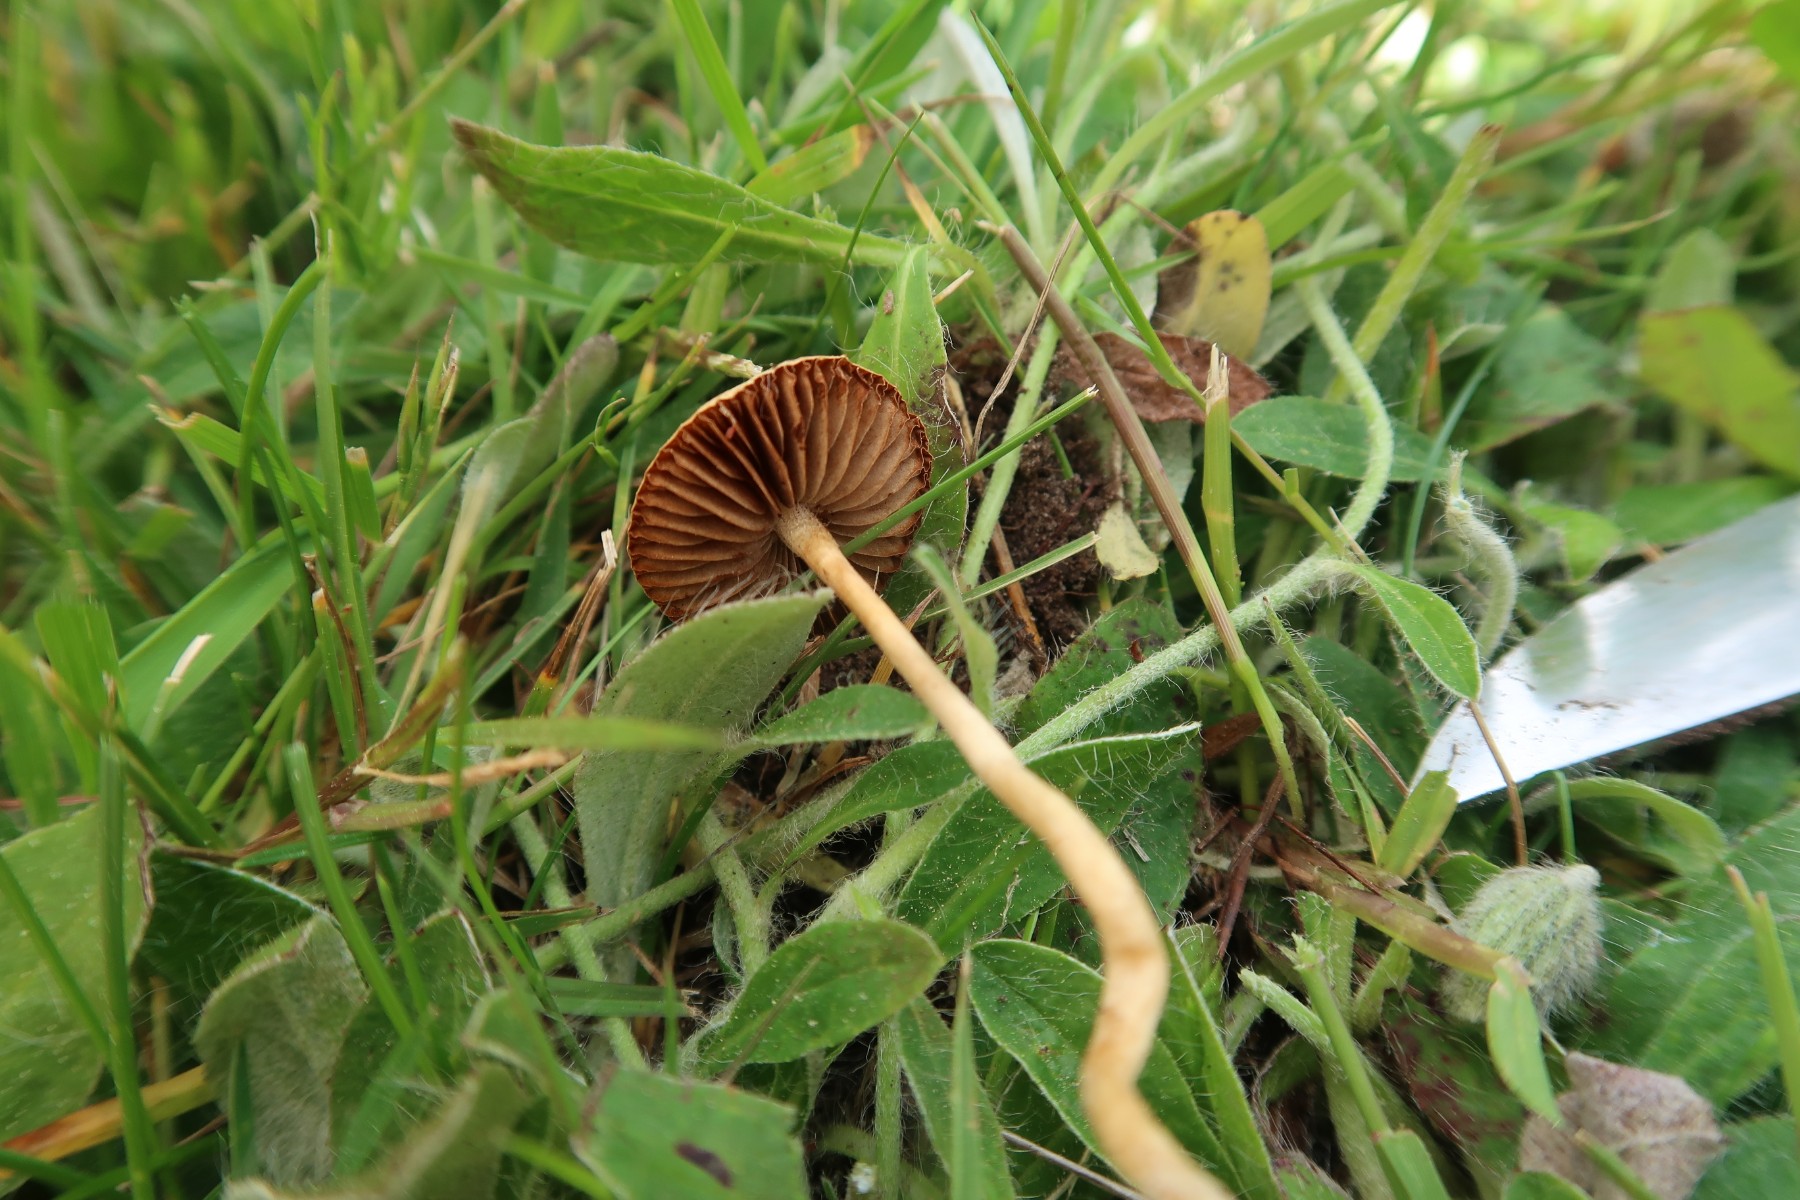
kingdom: Fungi
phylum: Basidiomycota
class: Agaricomycetes
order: Agaricales
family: Strophariaceae
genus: Agrocybe
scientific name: Agrocybe pediades
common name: almindelig agerhat
